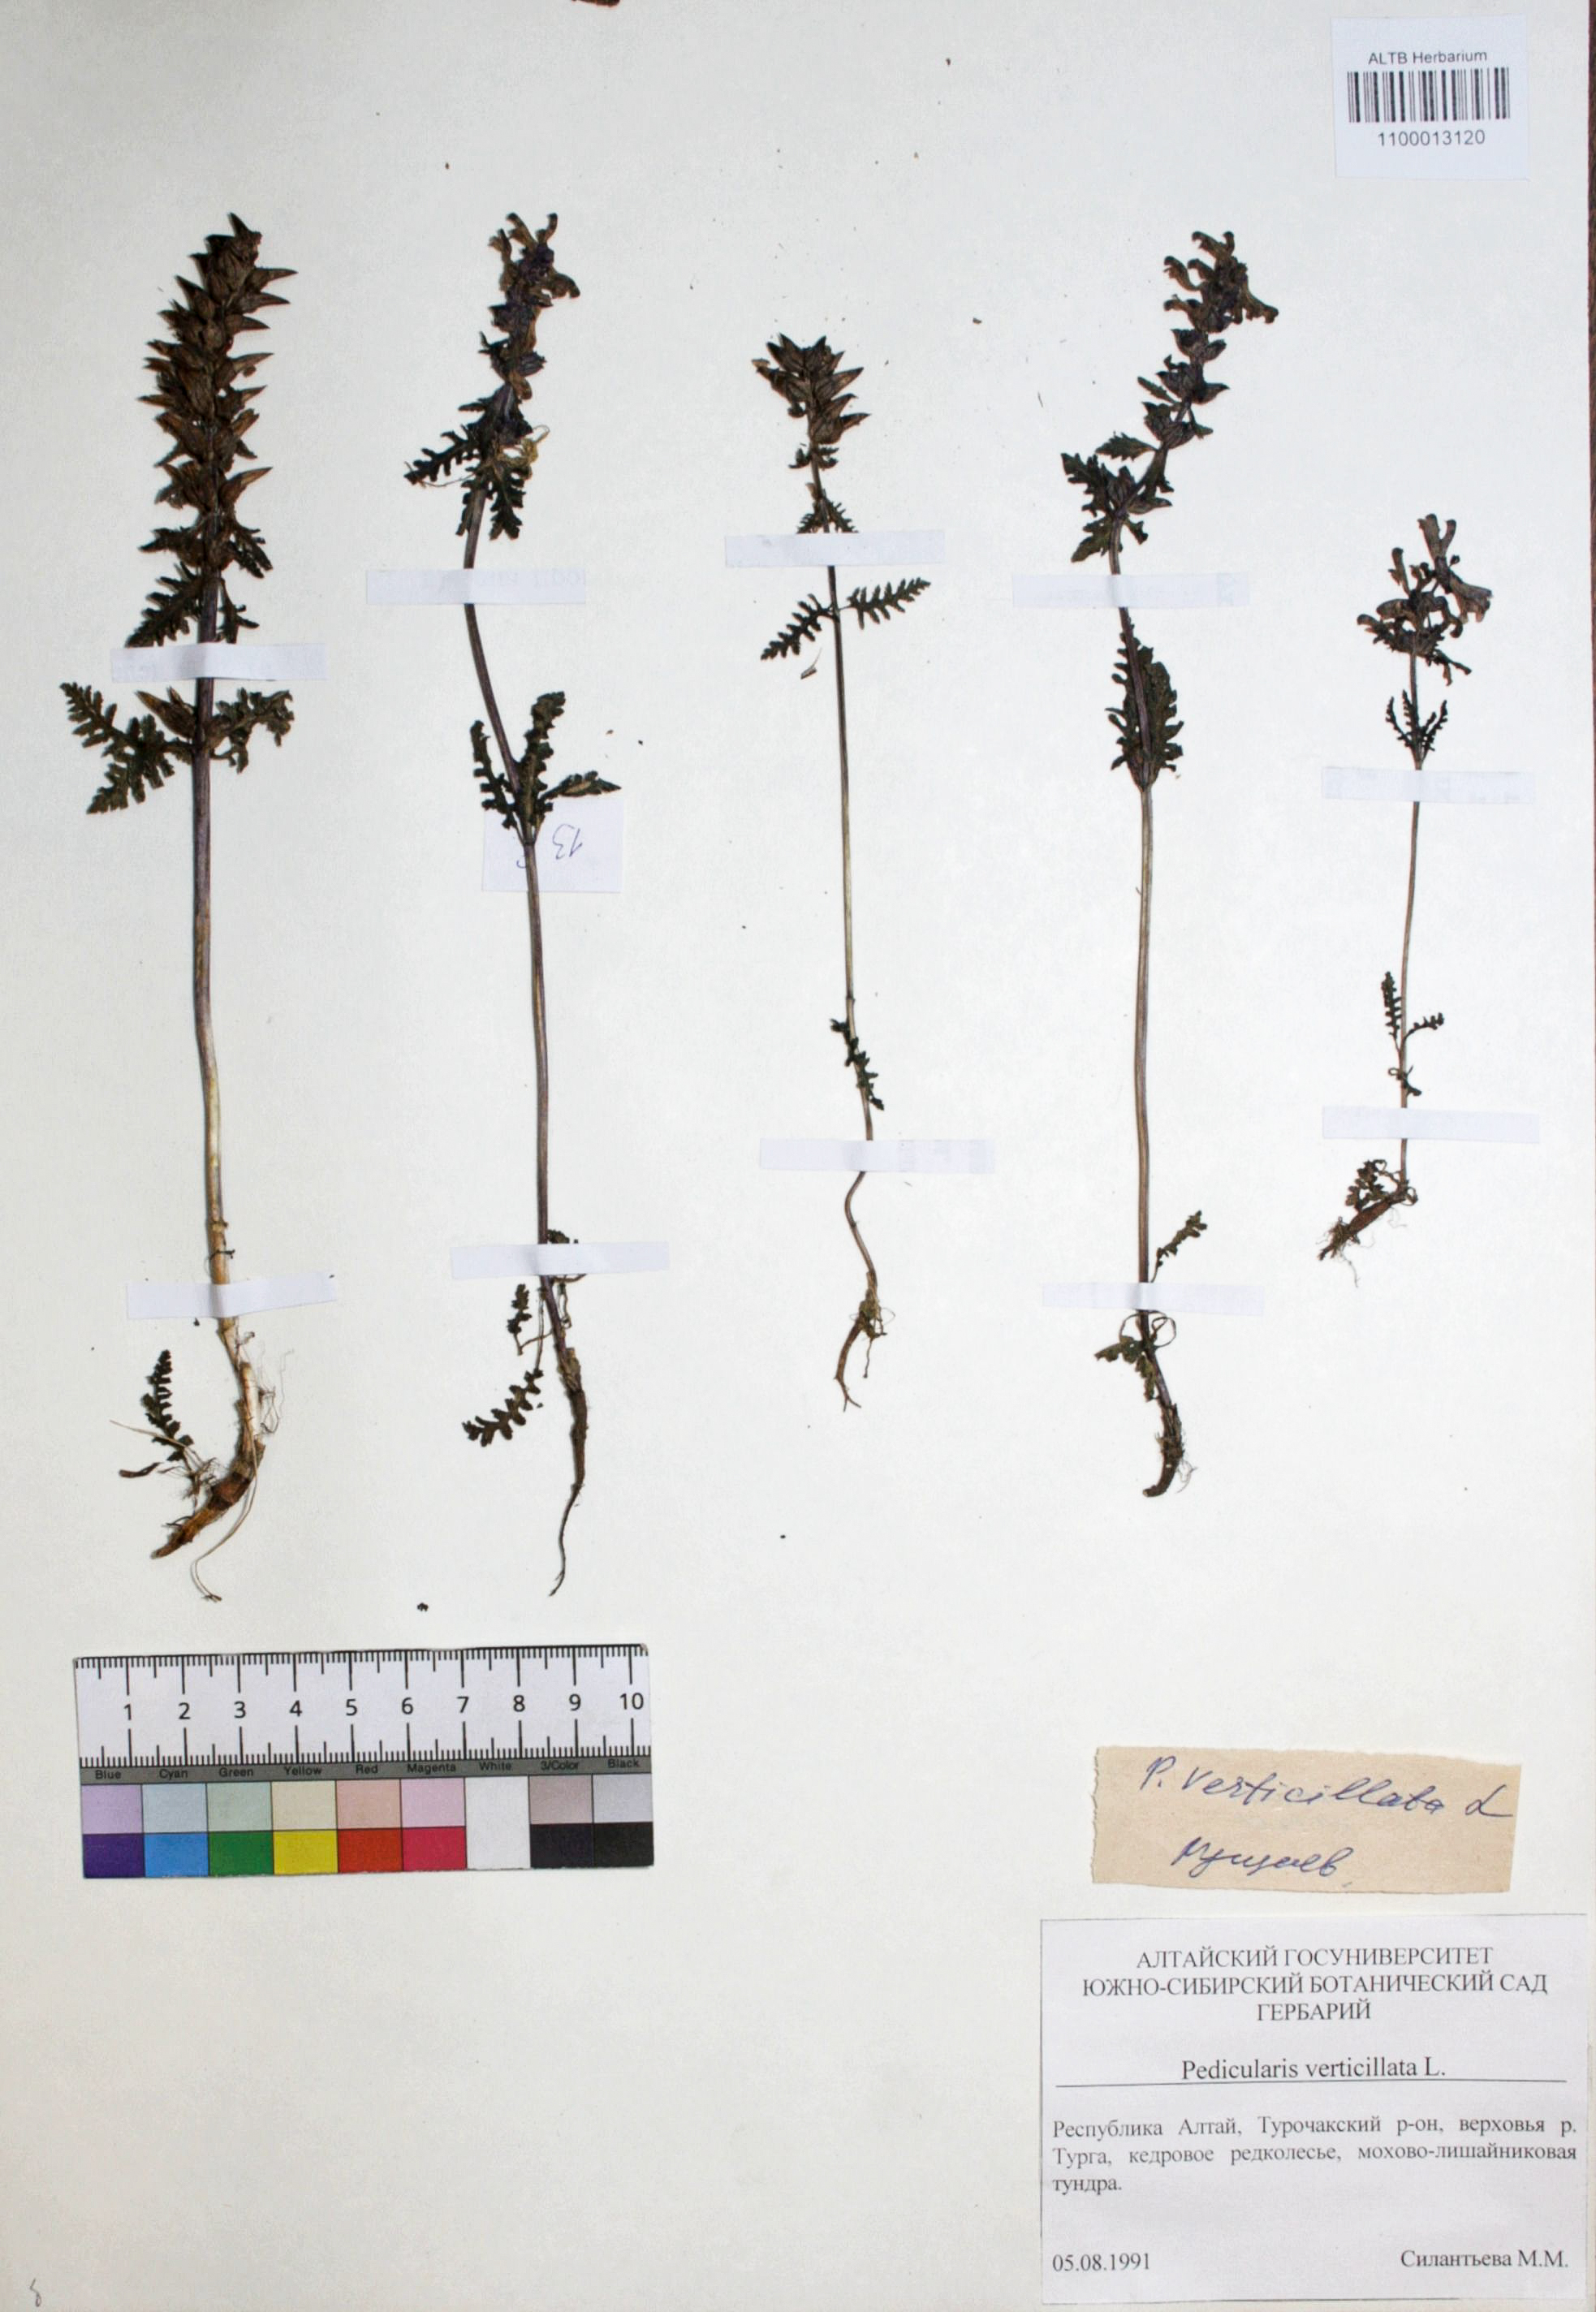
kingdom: Plantae
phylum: Tracheophyta
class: Magnoliopsida
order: Lamiales
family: Orobanchaceae
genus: Pedicularis
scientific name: Pedicularis verticillata
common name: Whorled lousewort
